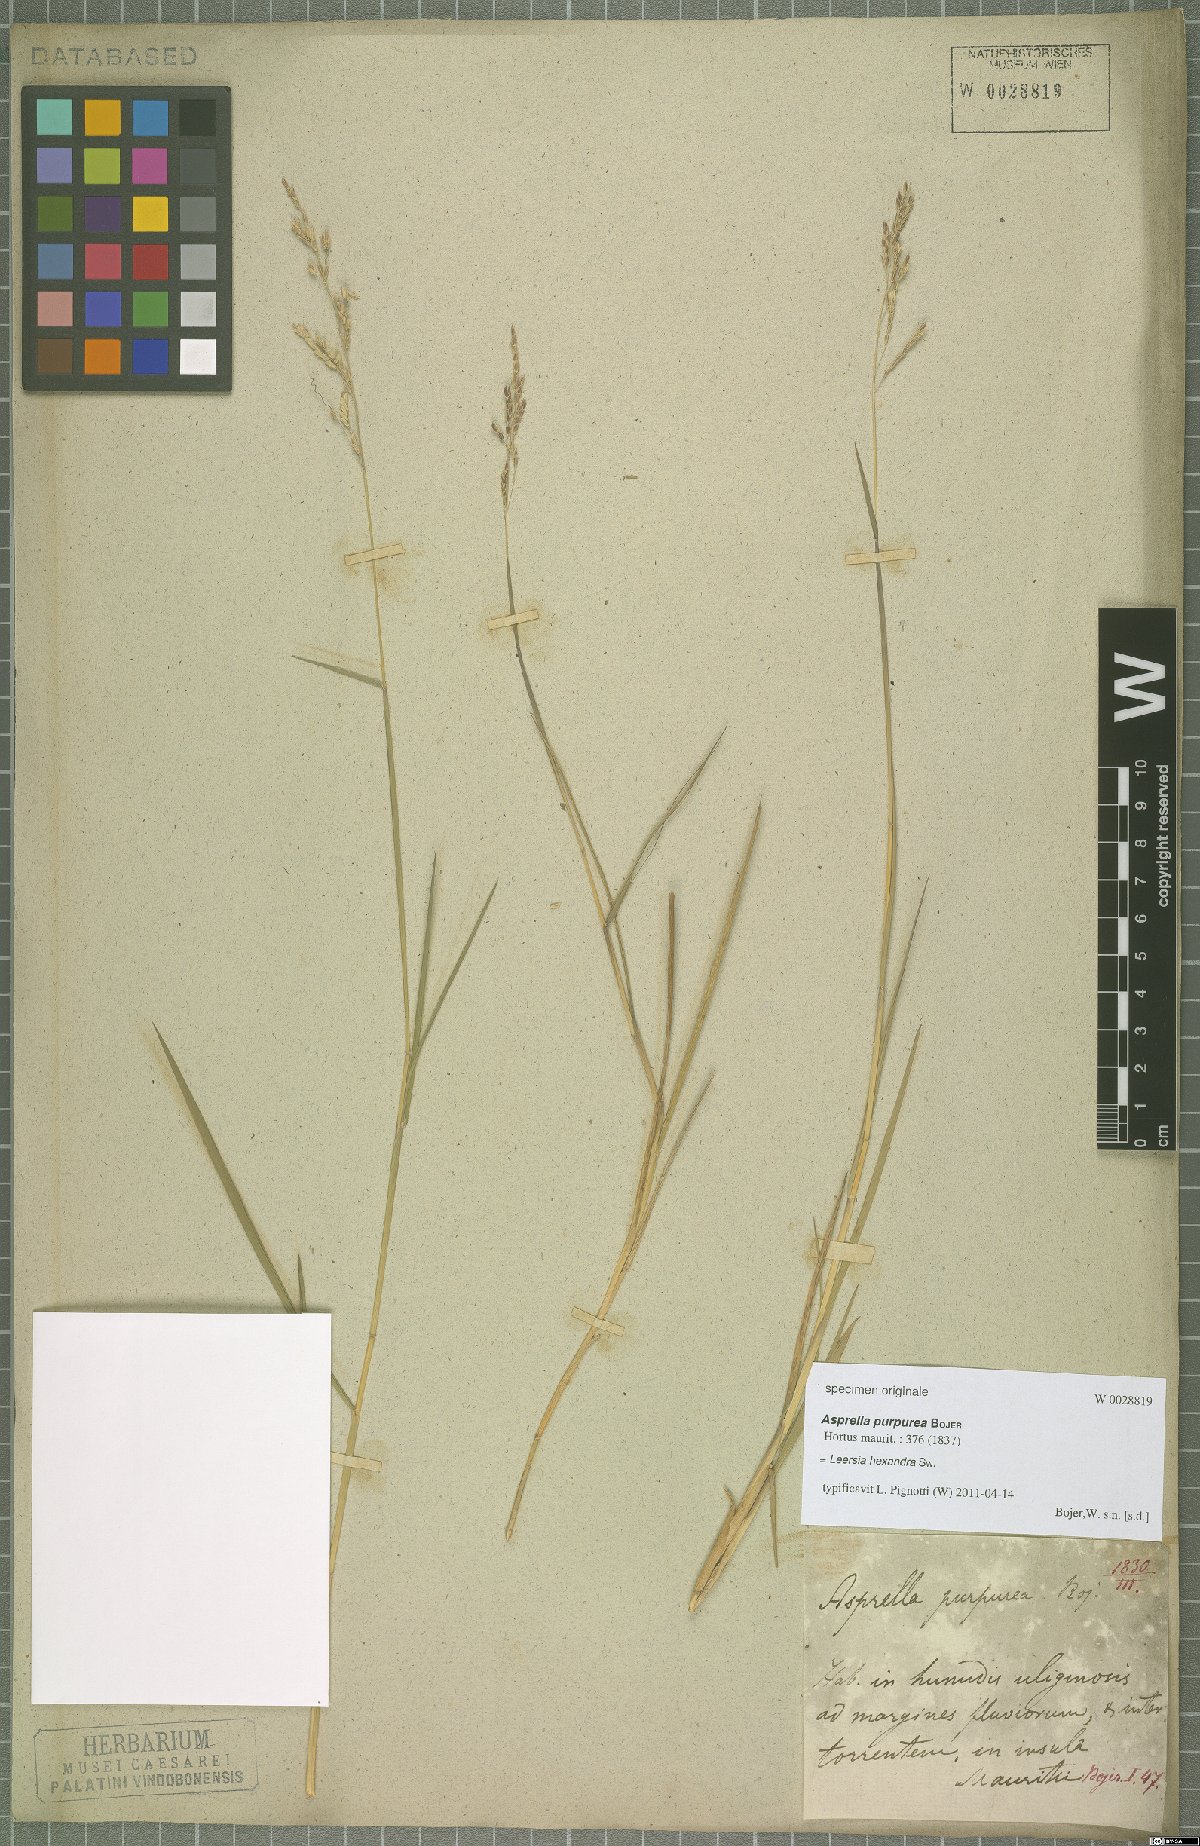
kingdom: Plantae
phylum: Tracheophyta
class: Liliopsida
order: Poales
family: Poaceae
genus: Leersia
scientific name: Leersia hexandra
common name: Southern cut grass
